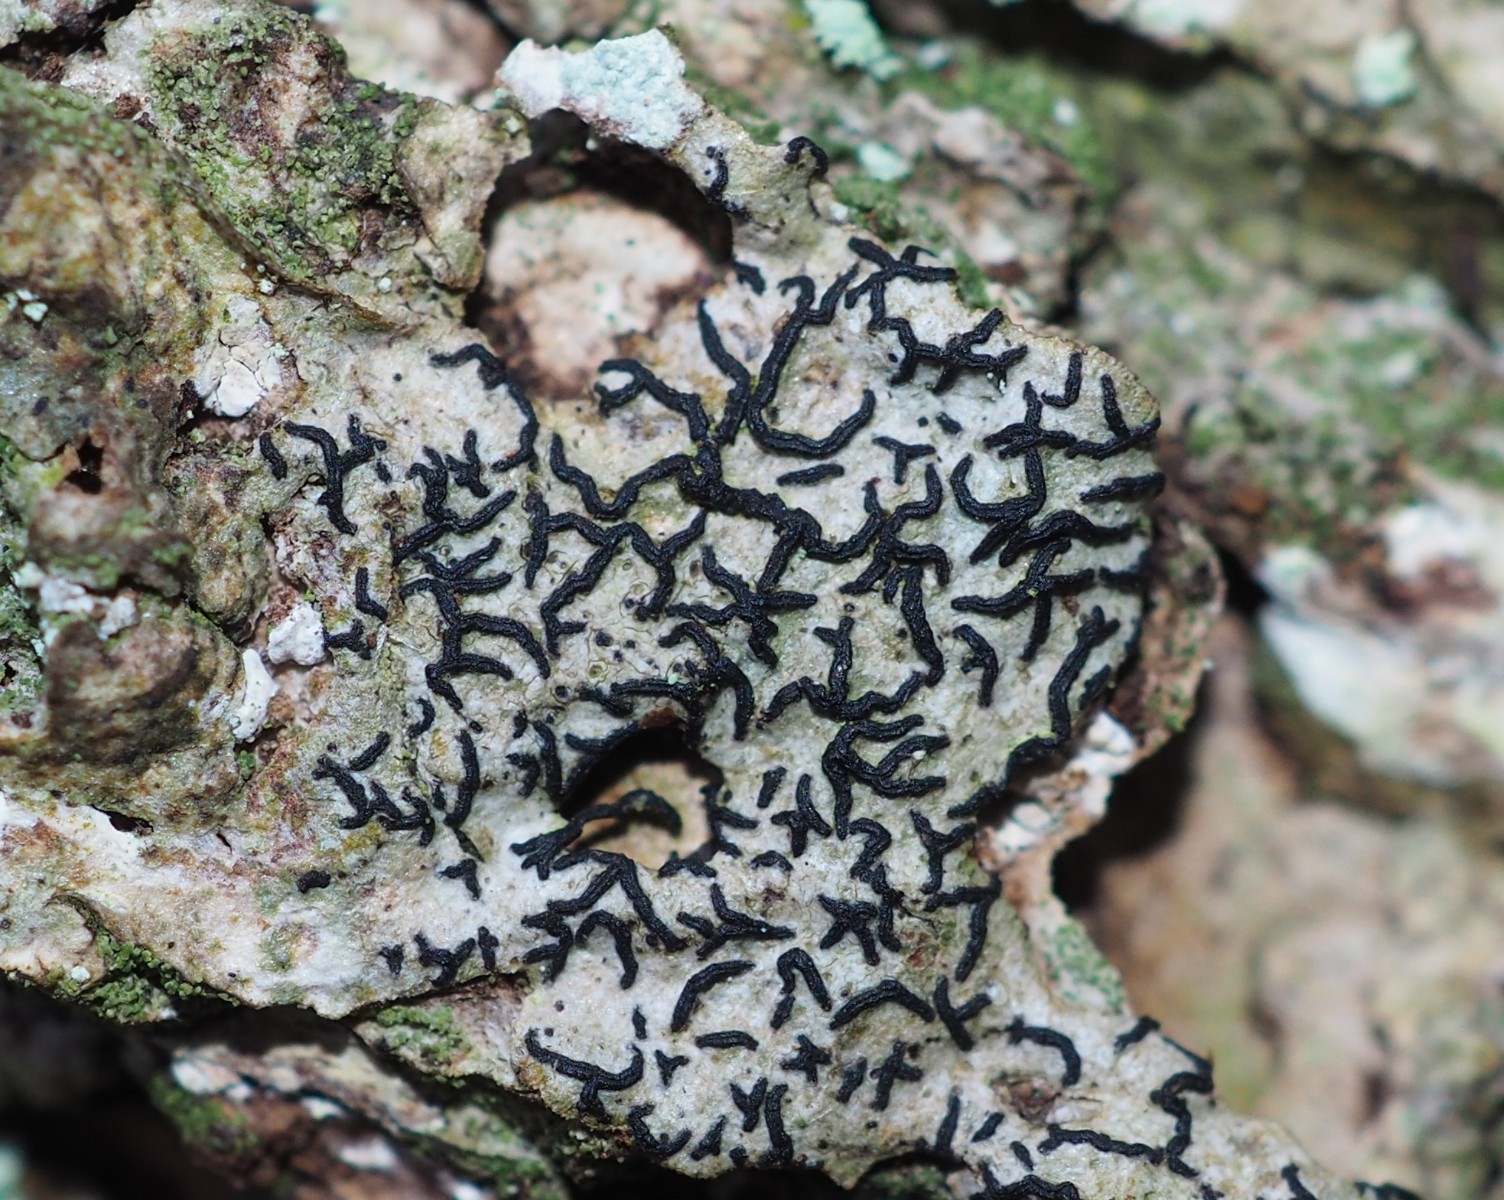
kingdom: Fungi
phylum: Ascomycota
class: Lecanoromycetes
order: Ostropales
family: Graphidaceae
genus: Graphis
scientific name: Graphis scripta
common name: almindelig skriftlav
